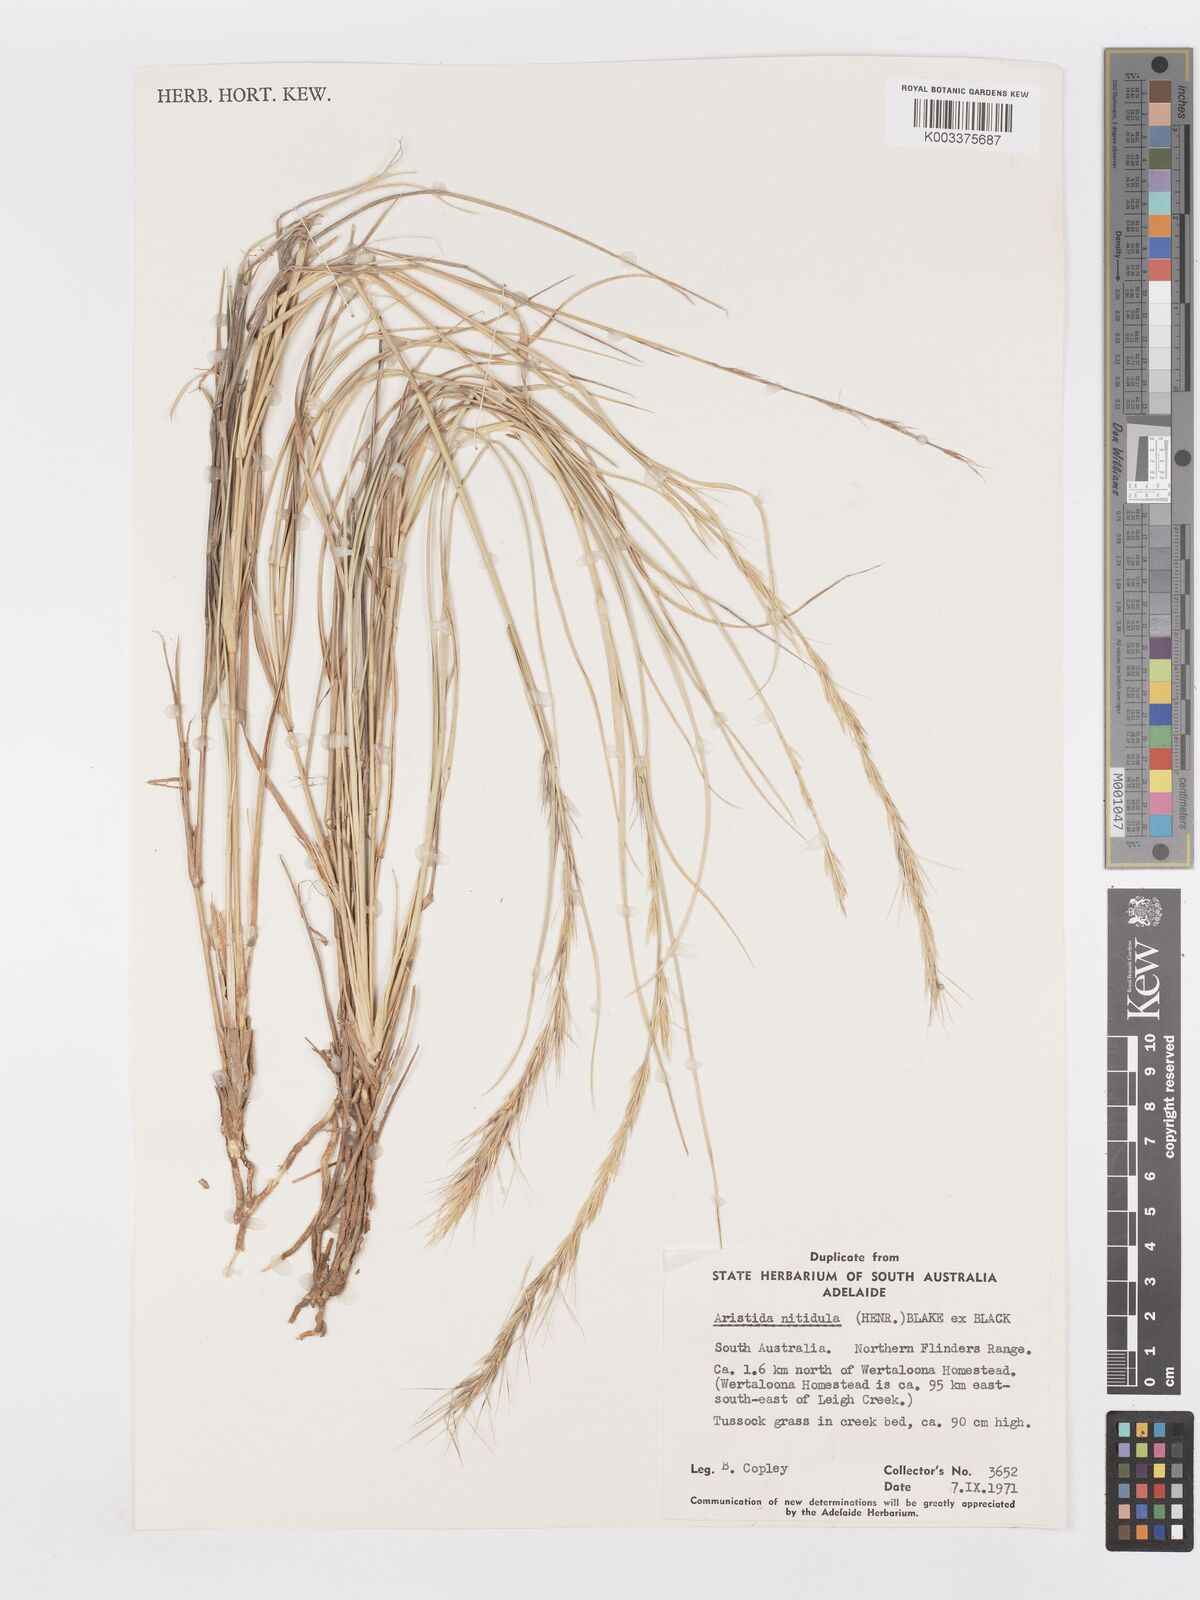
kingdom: Plantae
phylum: Tracheophyta
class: Liliopsida
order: Poales
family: Poaceae
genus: Aristida
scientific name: Aristida nitidula
